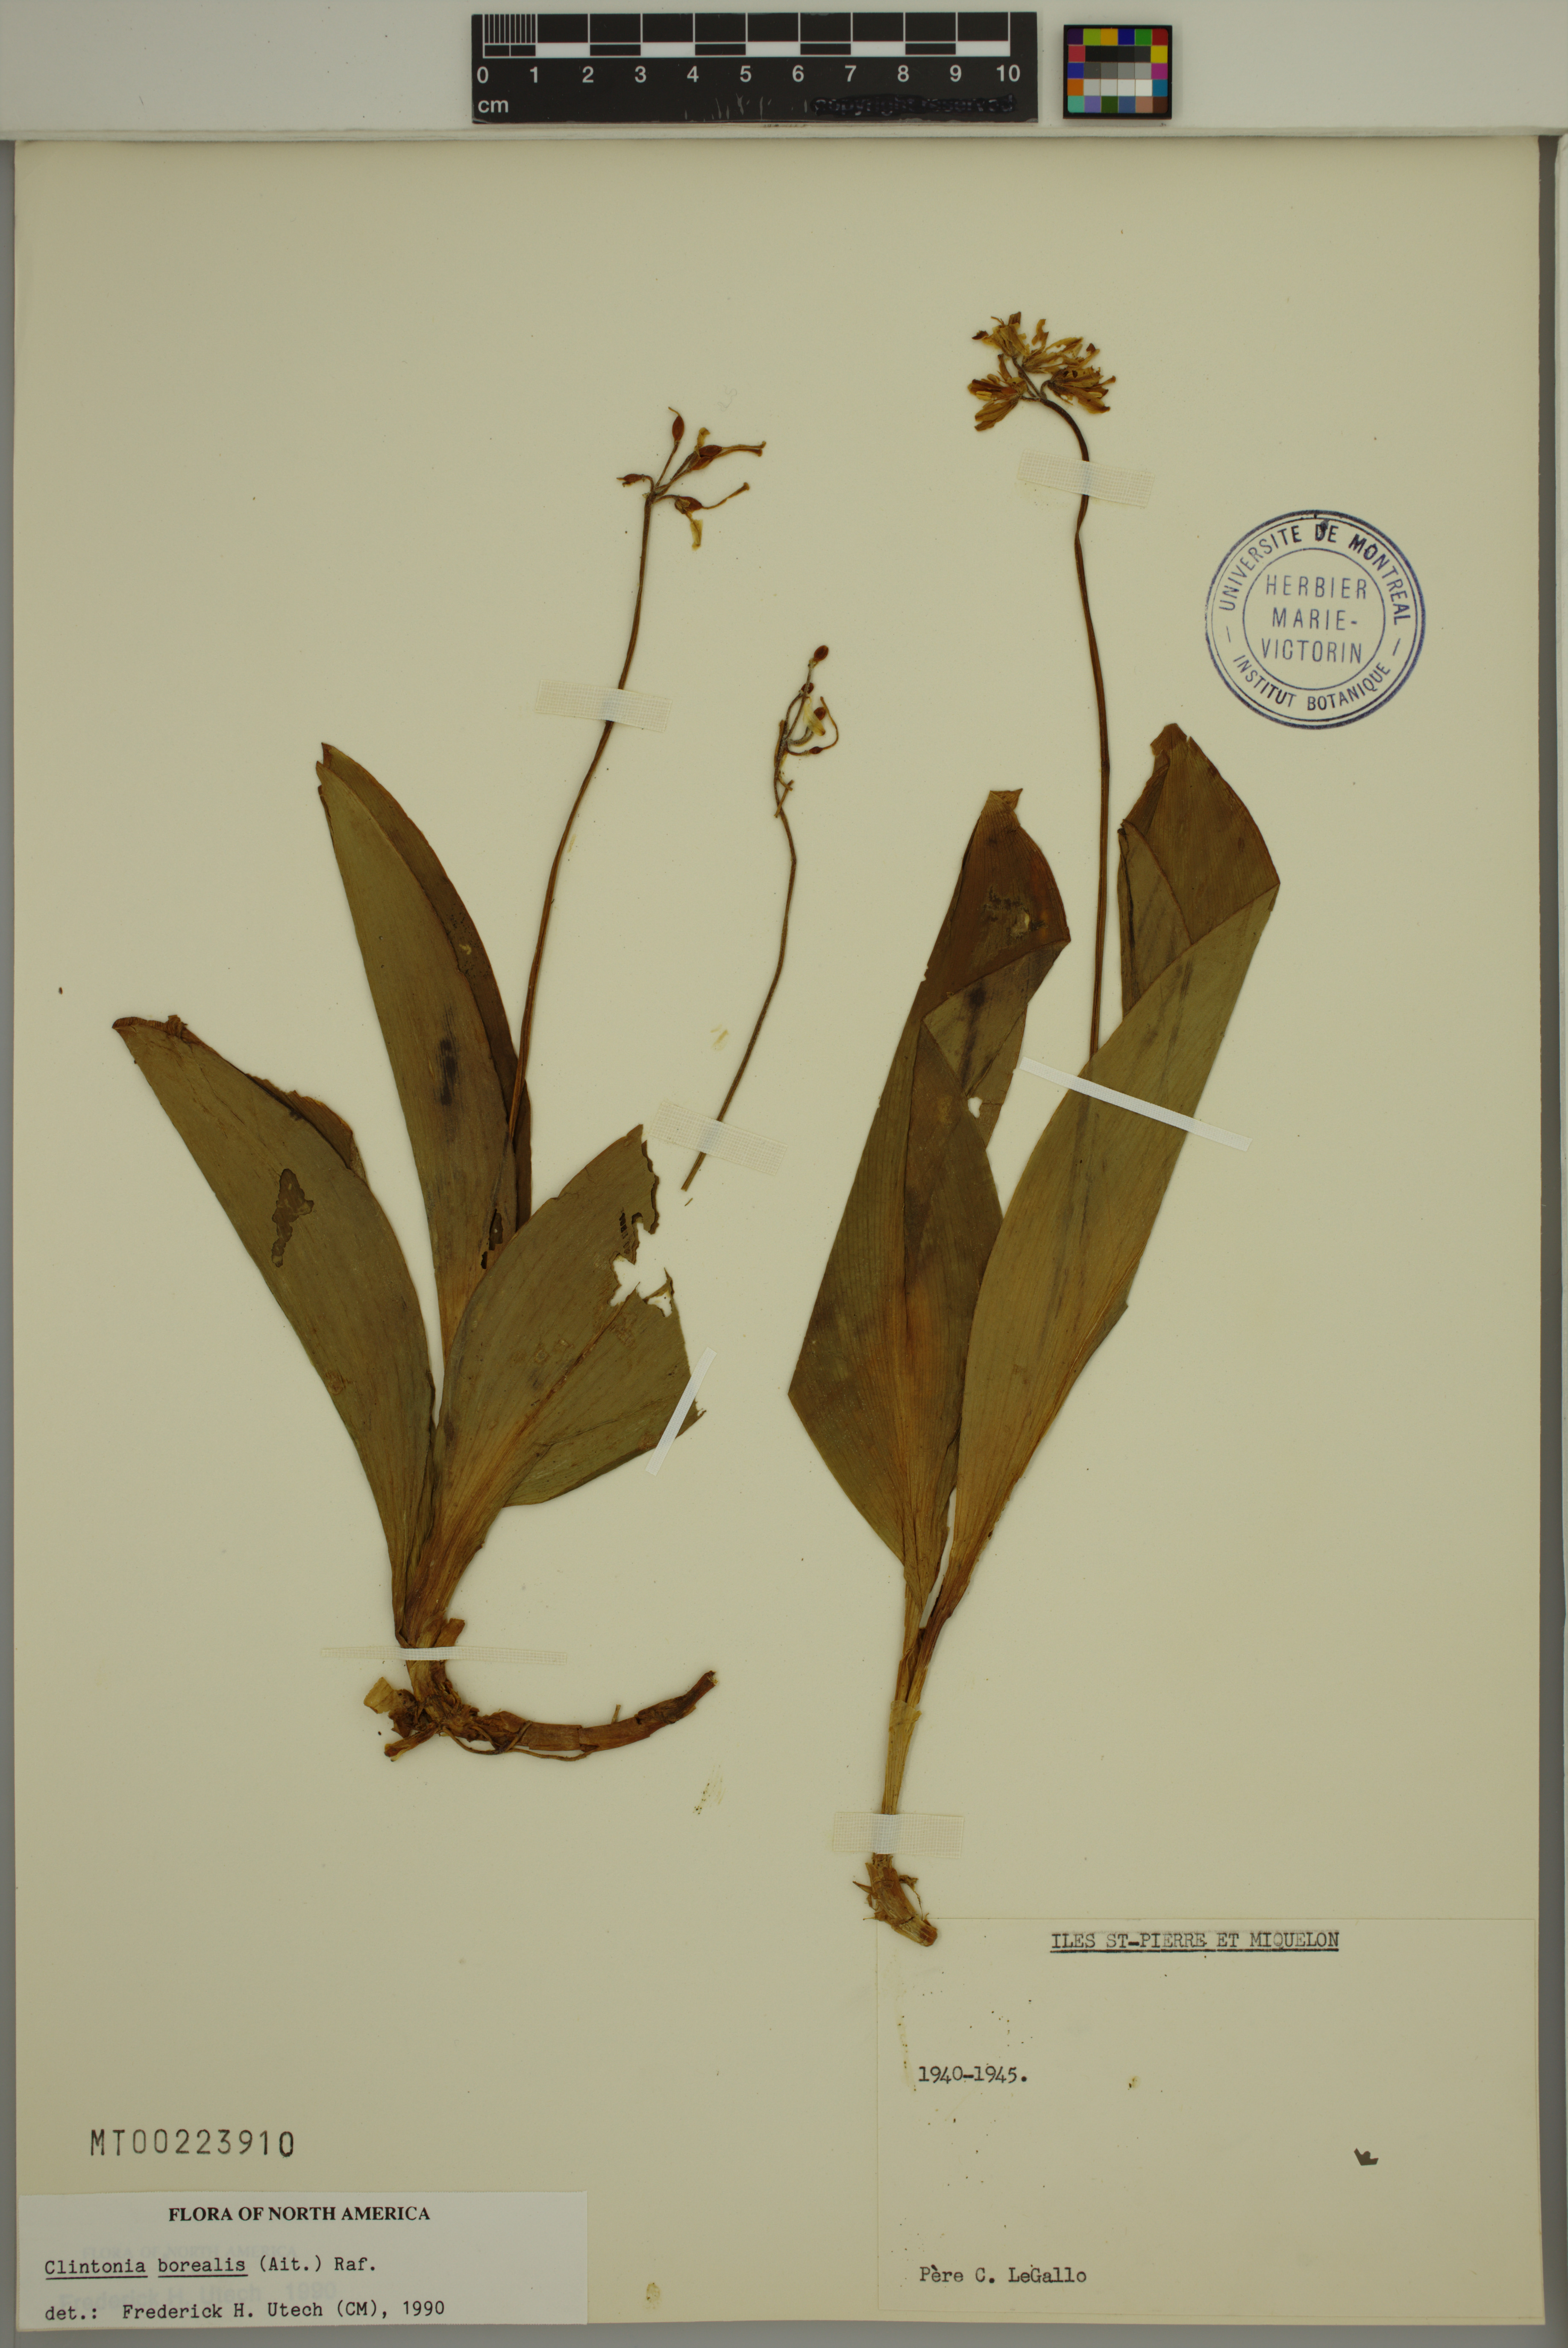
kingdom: Plantae
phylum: Tracheophyta
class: Liliopsida
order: Liliales
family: Liliaceae
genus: Clintonia
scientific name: Clintonia borealis
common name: Yellow clintonia
